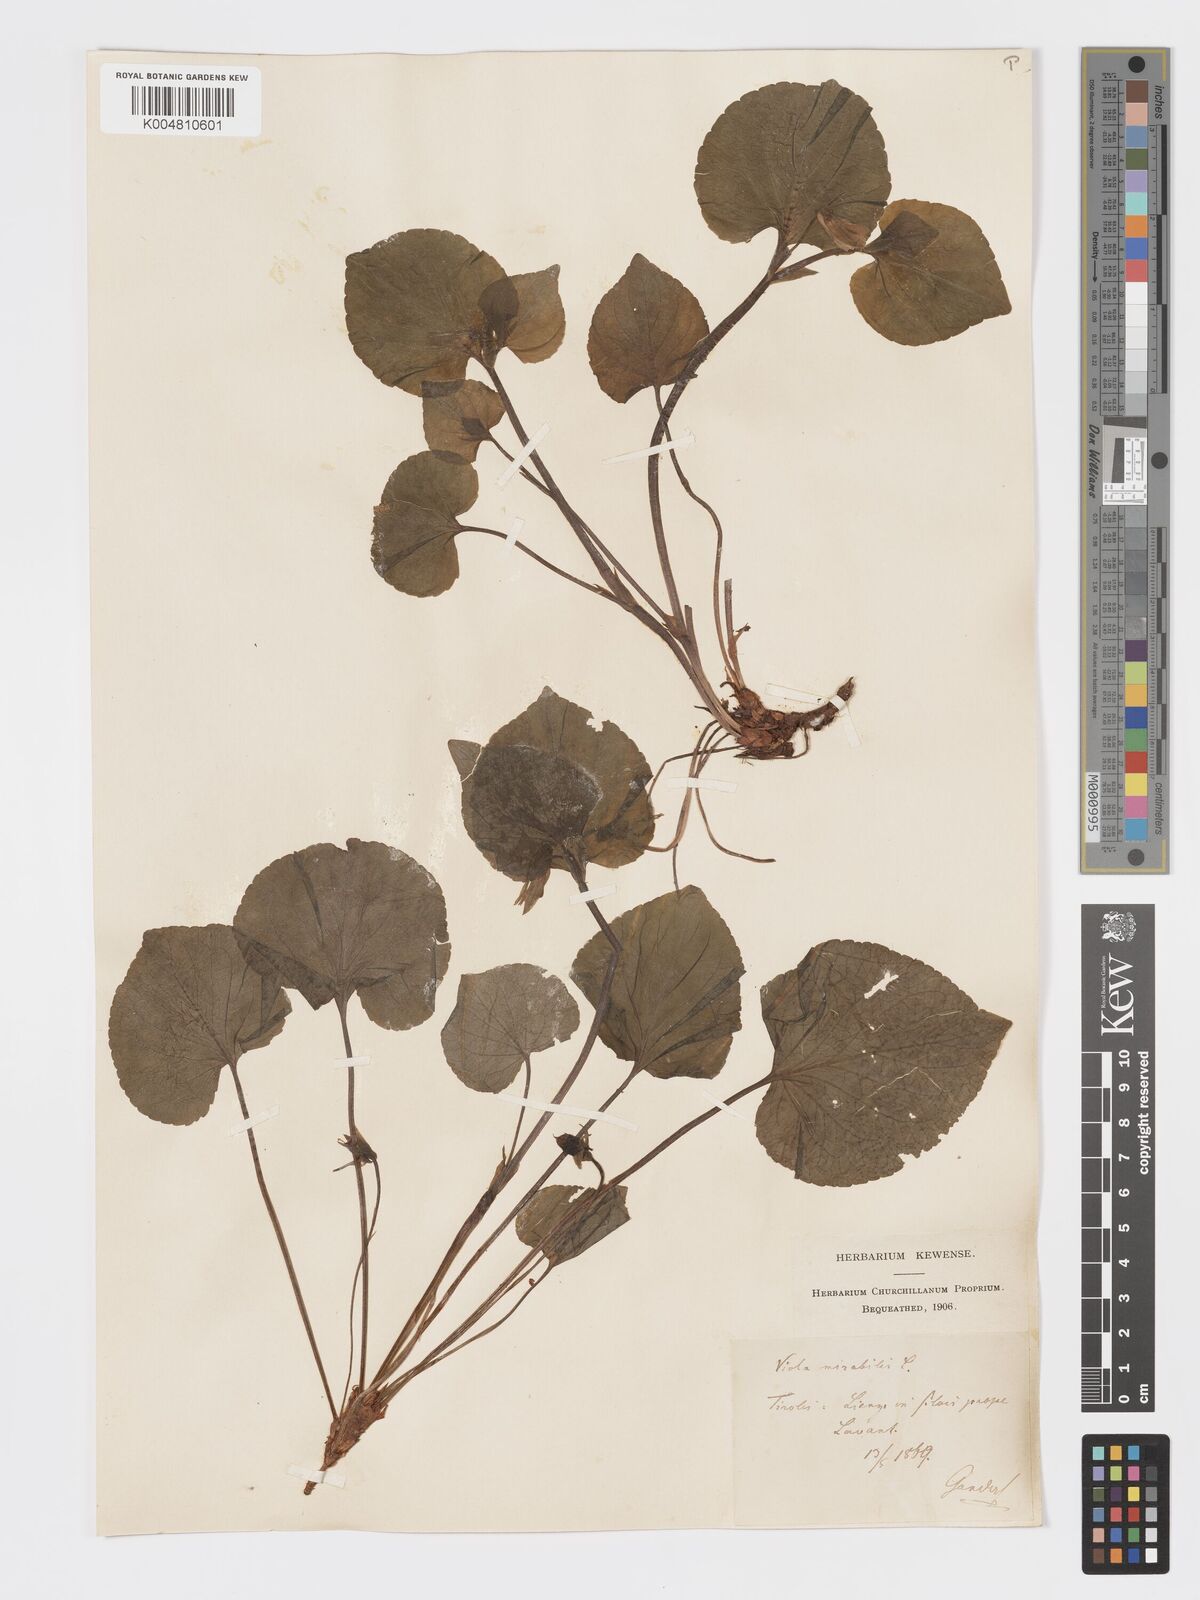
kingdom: Plantae
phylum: Tracheophyta
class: Magnoliopsida
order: Malpighiales
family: Violaceae
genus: Viola
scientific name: Viola mirabilis
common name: Wonder violet
